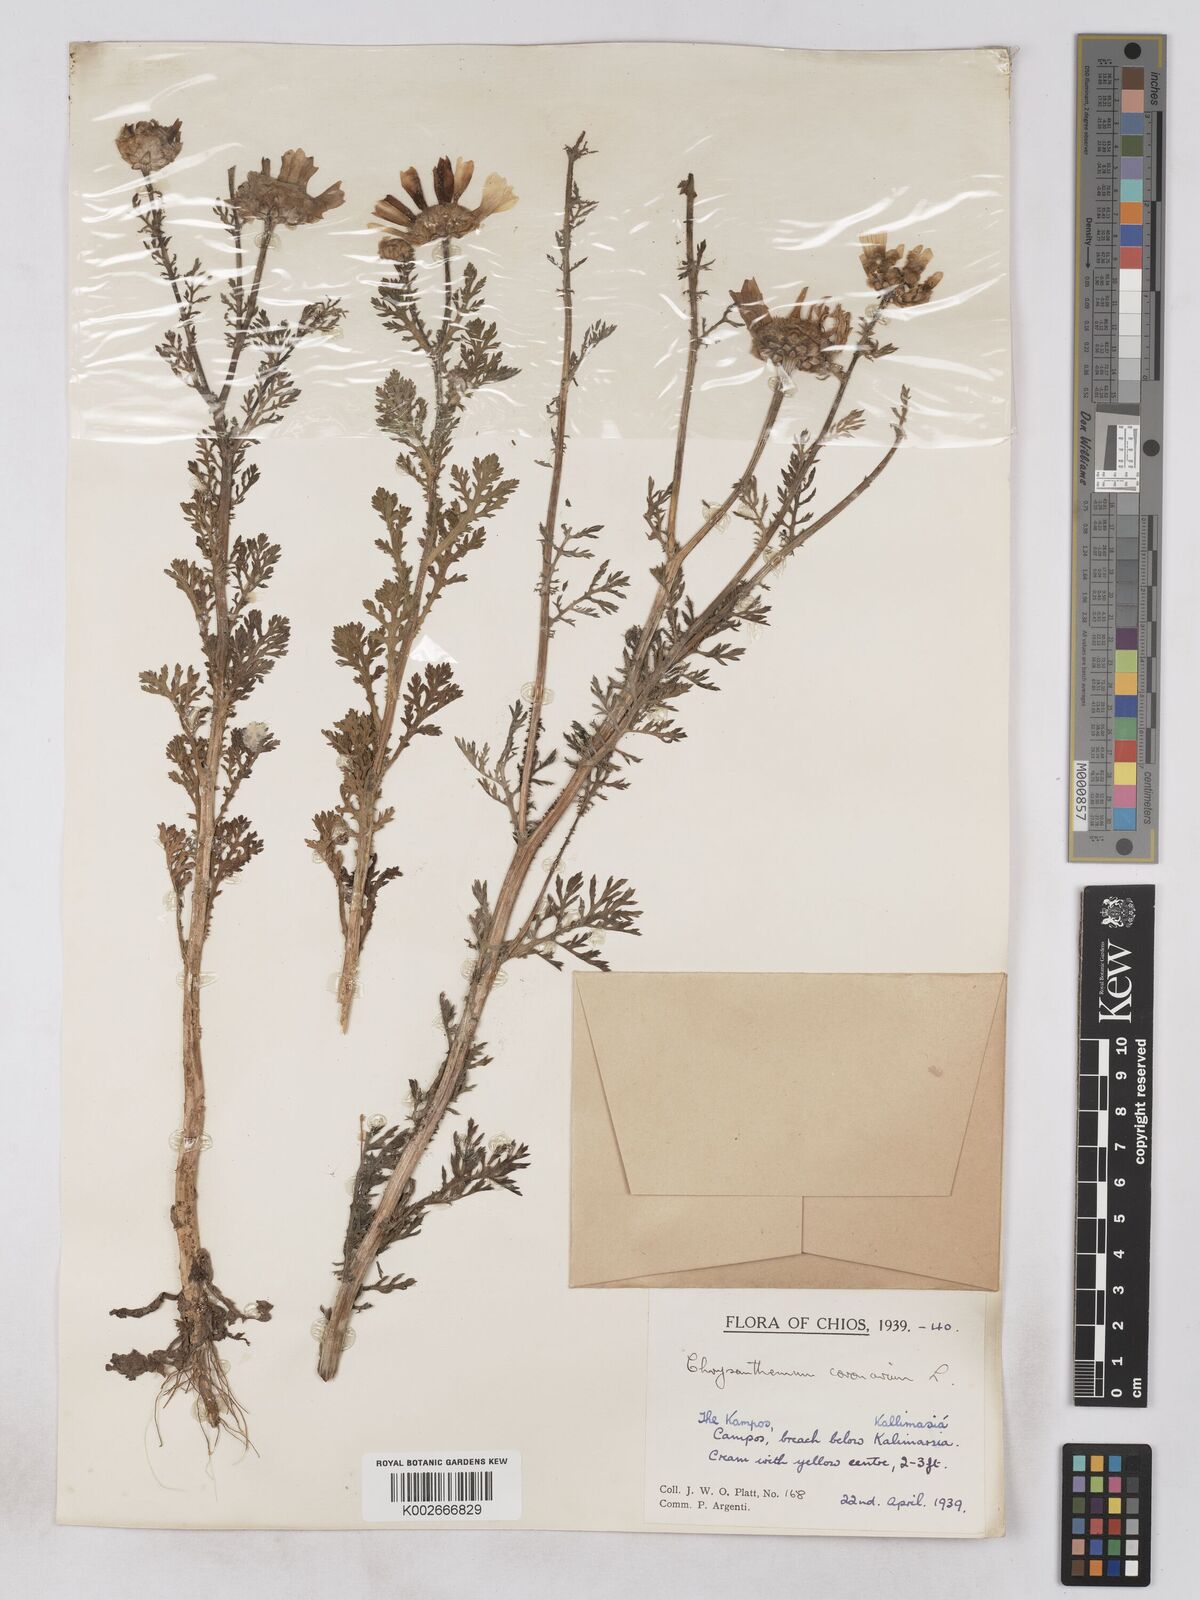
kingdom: Plantae
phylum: Tracheophyta
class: Magnoliopsida
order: Asterales
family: Asteraceae
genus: Glebionis
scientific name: Glebionis coronaria
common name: Crowndaisy
